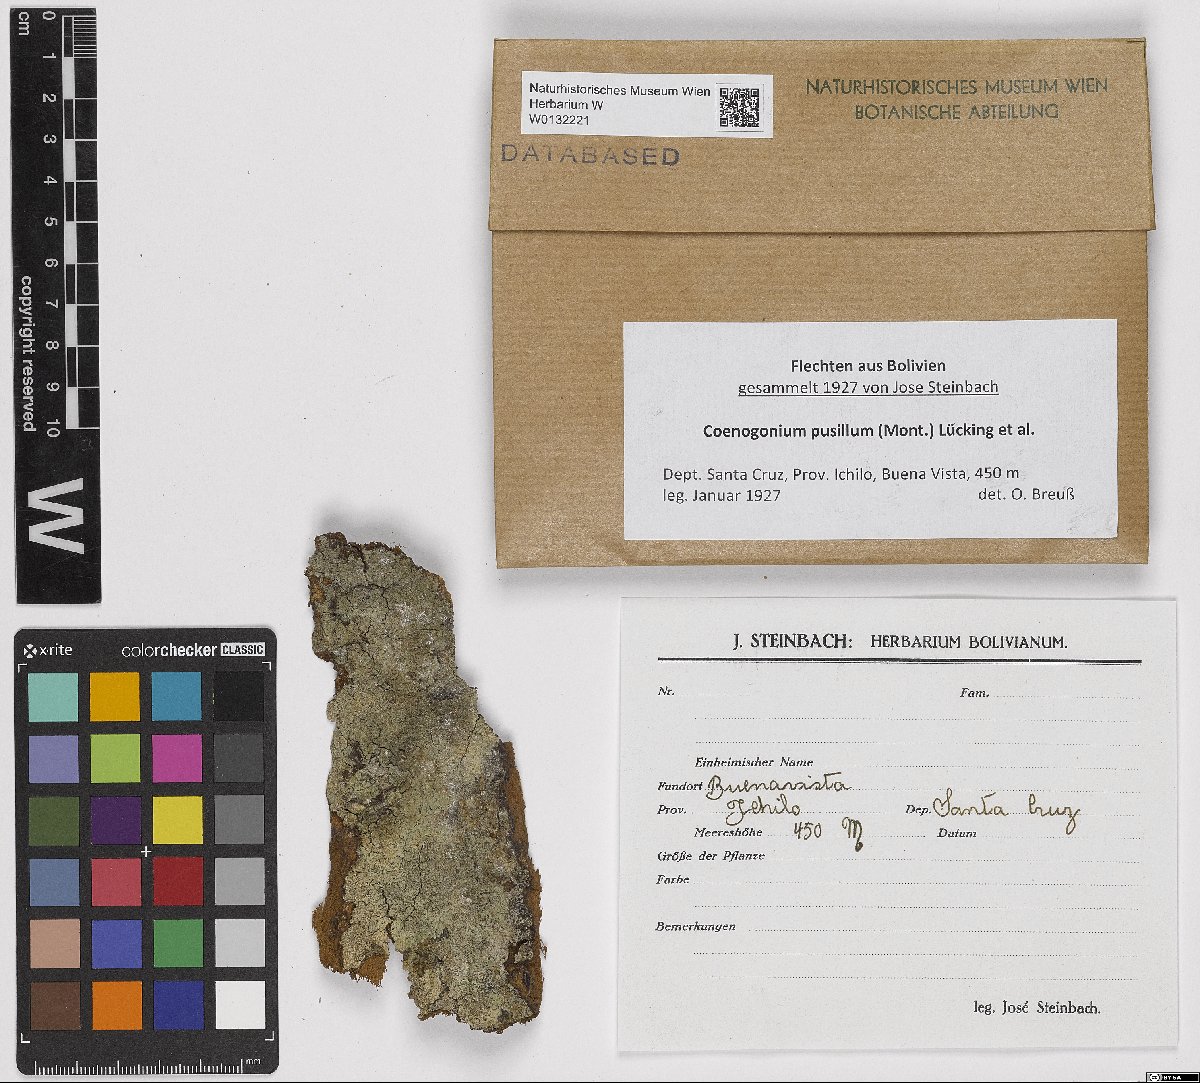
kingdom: Fungi
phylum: Ascomycota
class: Lecanoromycetes
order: Ostropales
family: Coenogoniaceae
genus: Coenogonium
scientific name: Coenogonium pusillum
